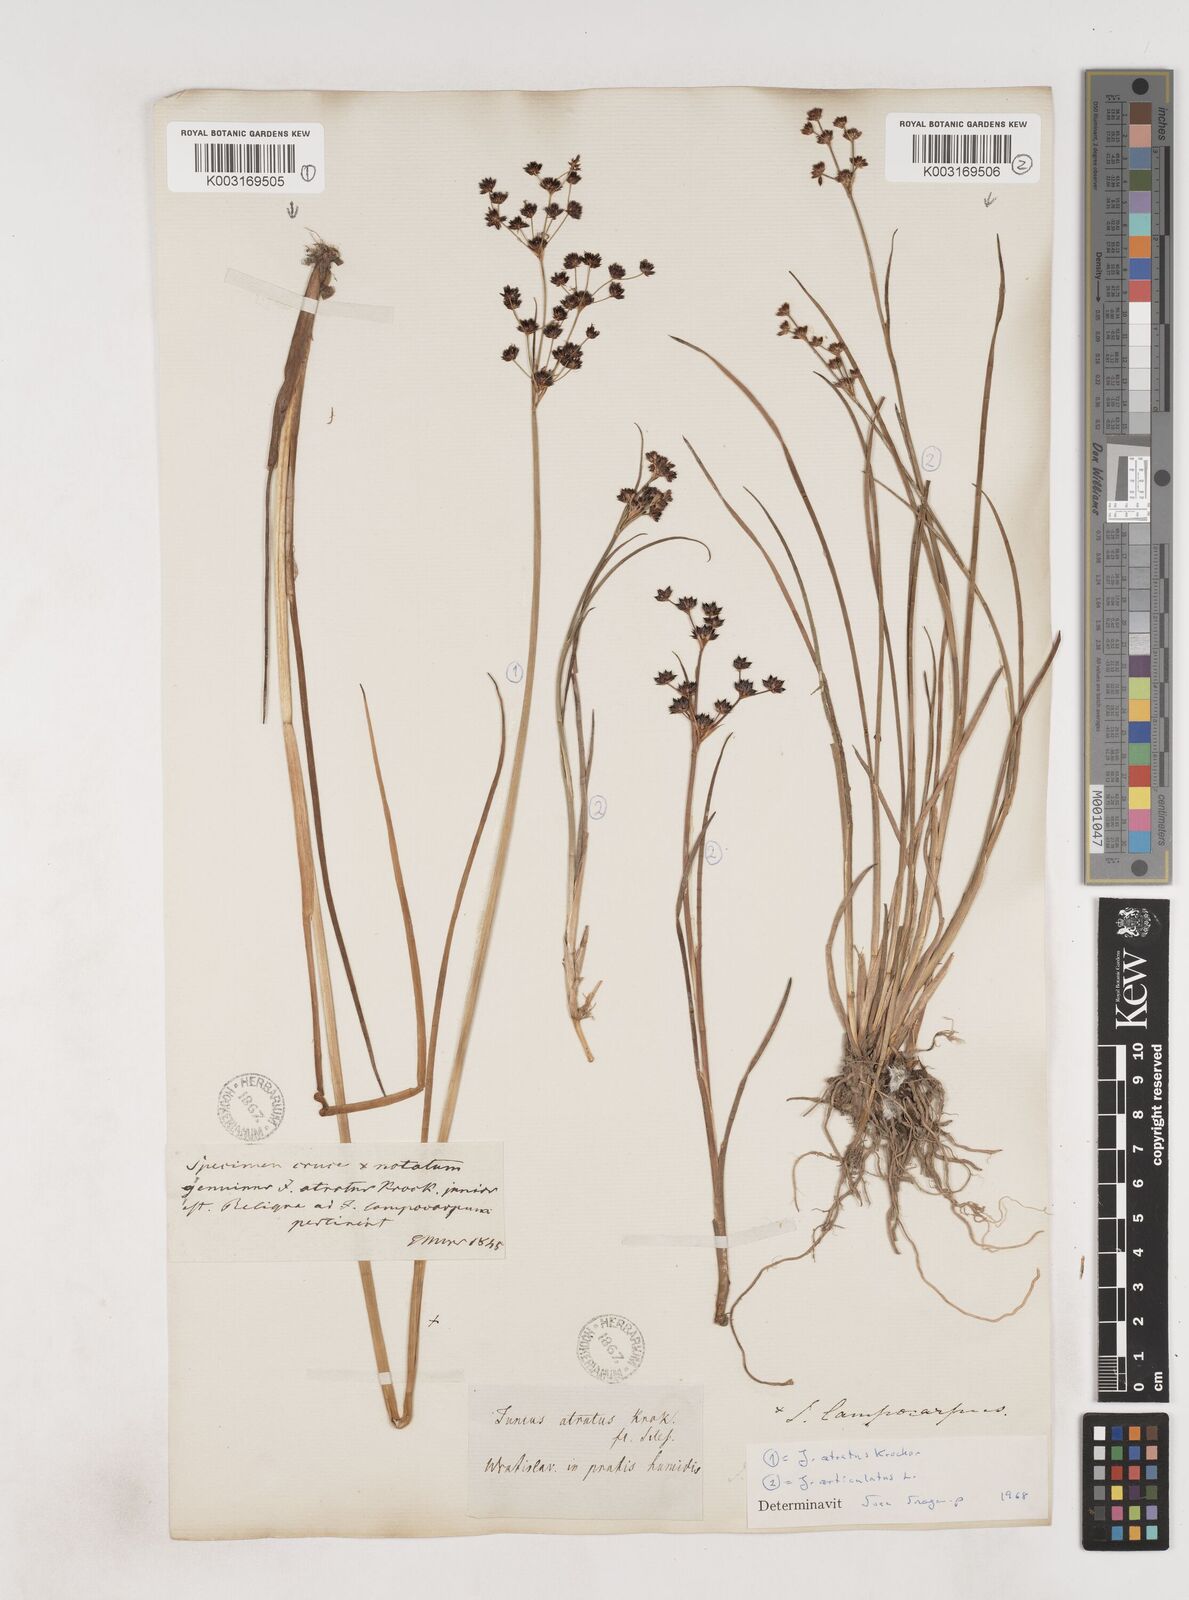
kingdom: Plantae
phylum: Tracheophyta
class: Liliopsida
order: Poales
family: Juncaceae
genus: Juncus
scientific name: Juncus atratus
